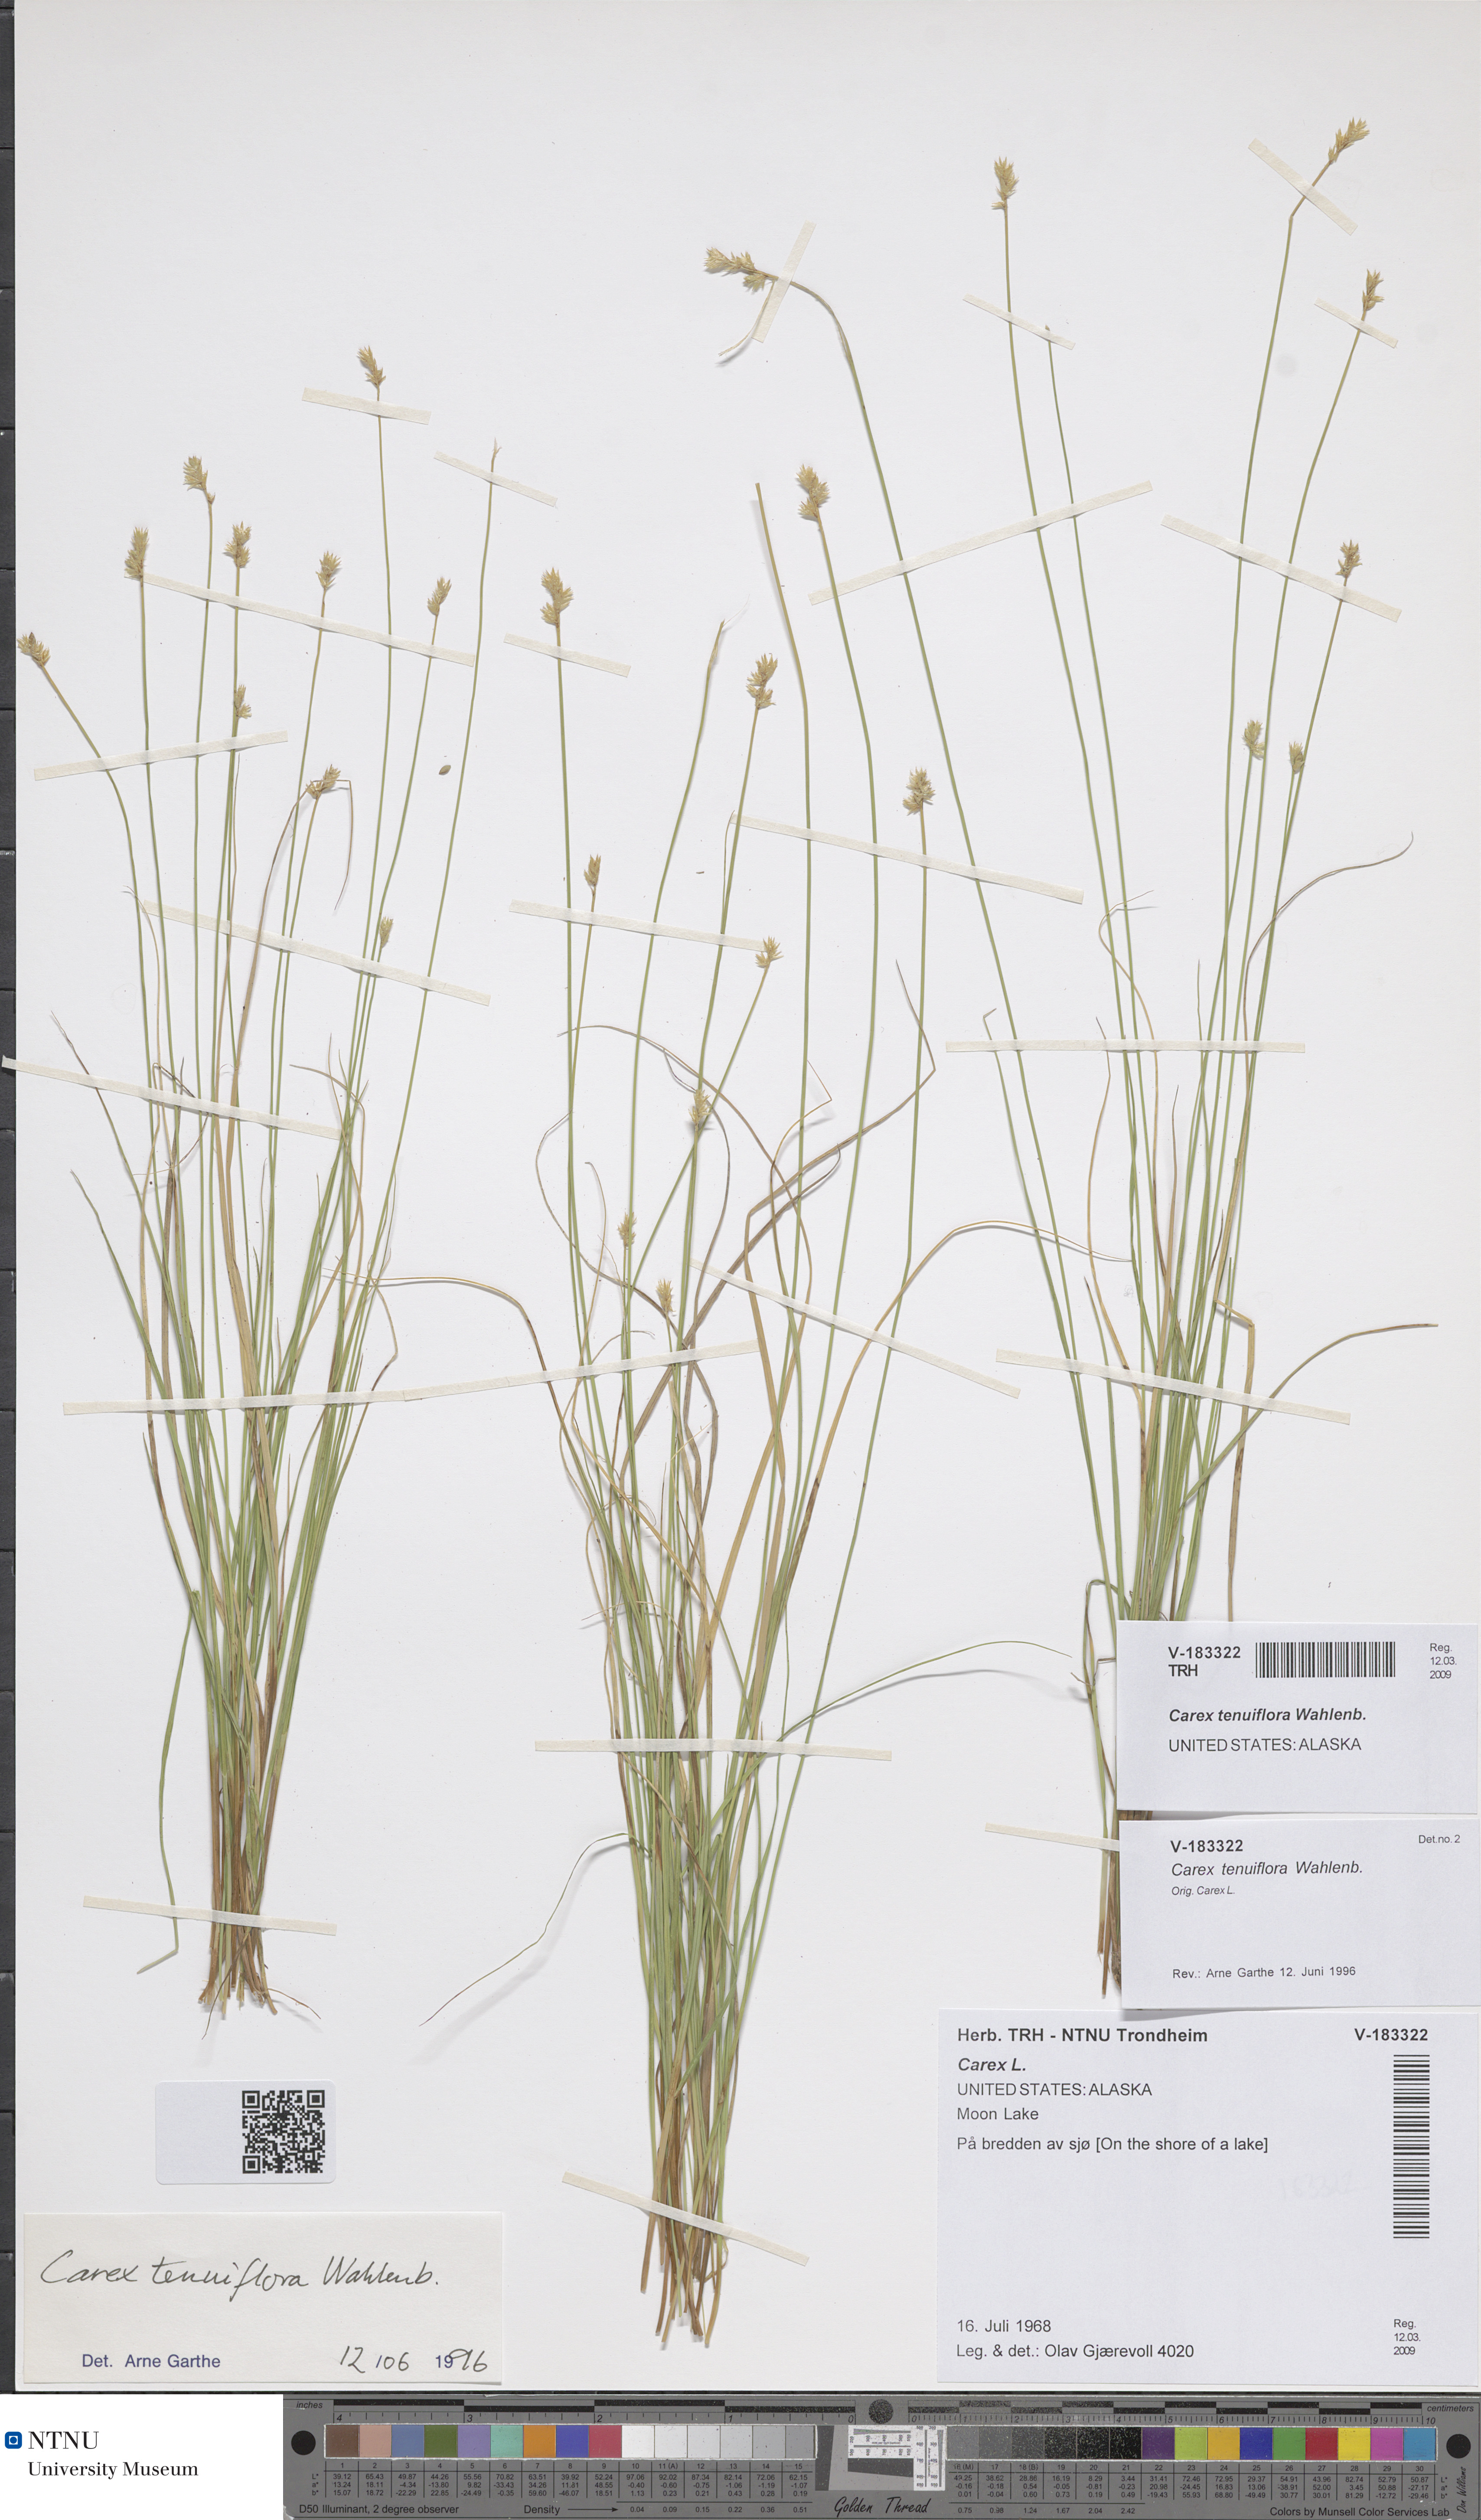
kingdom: Plantae
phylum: Tracheophyta
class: Liliopsida
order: Poales
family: Cyperaceae
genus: Carex
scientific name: Carex tenuiflora
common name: Sparse-flowered sedge
